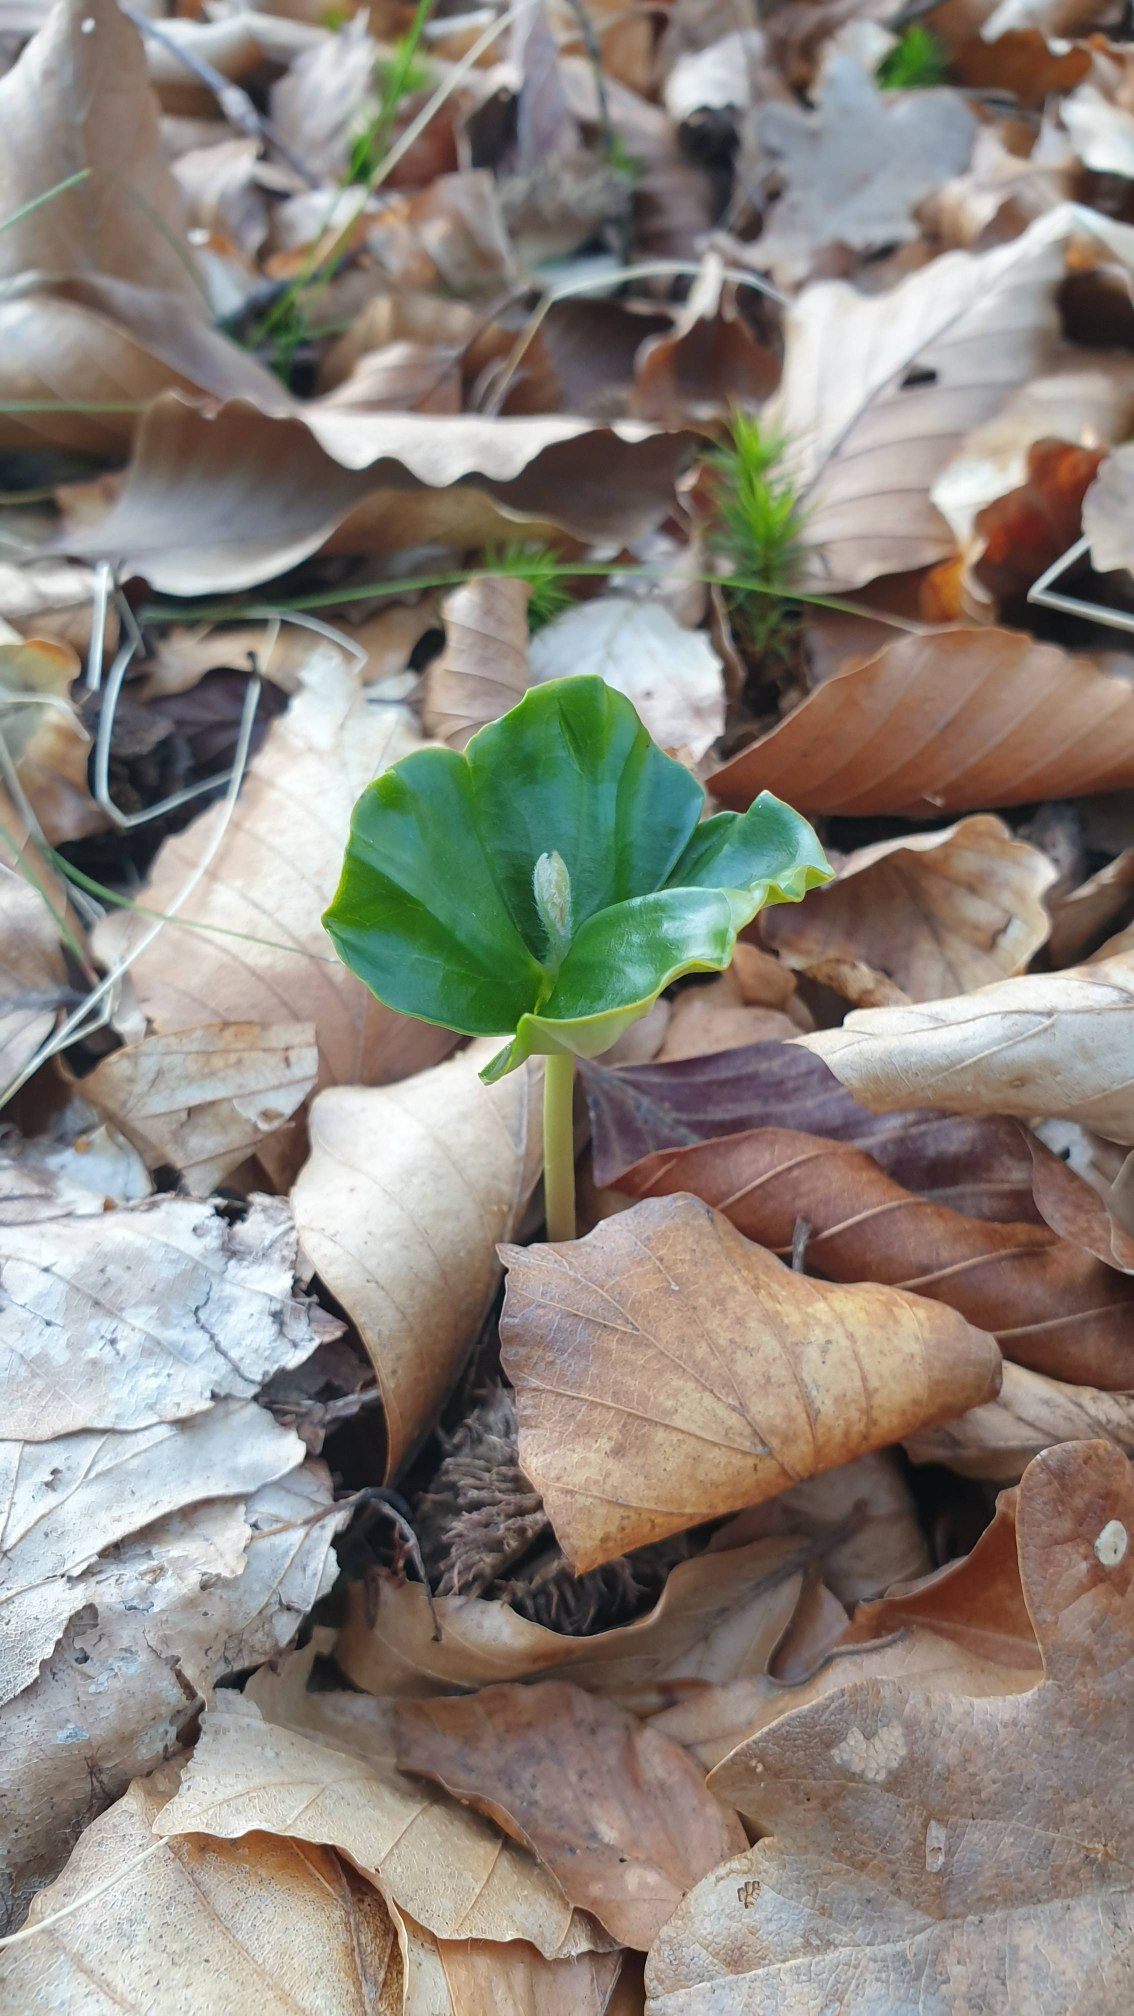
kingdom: Plantae
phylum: Tracheophyta
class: Magnoliopsida
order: Fagales
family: Fagaceae
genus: Fagus
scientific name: Fagus sylvatica
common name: Bøg
